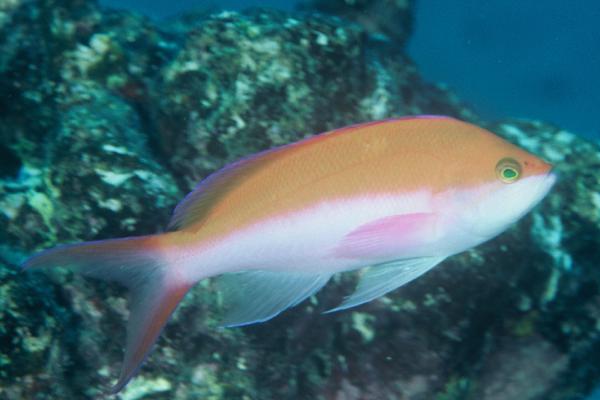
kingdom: Animalia
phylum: Chordata
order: Perciformes
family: Serranidae
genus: Pseudanthias
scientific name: Pseudanthias bicolor
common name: Bicolor anthias
